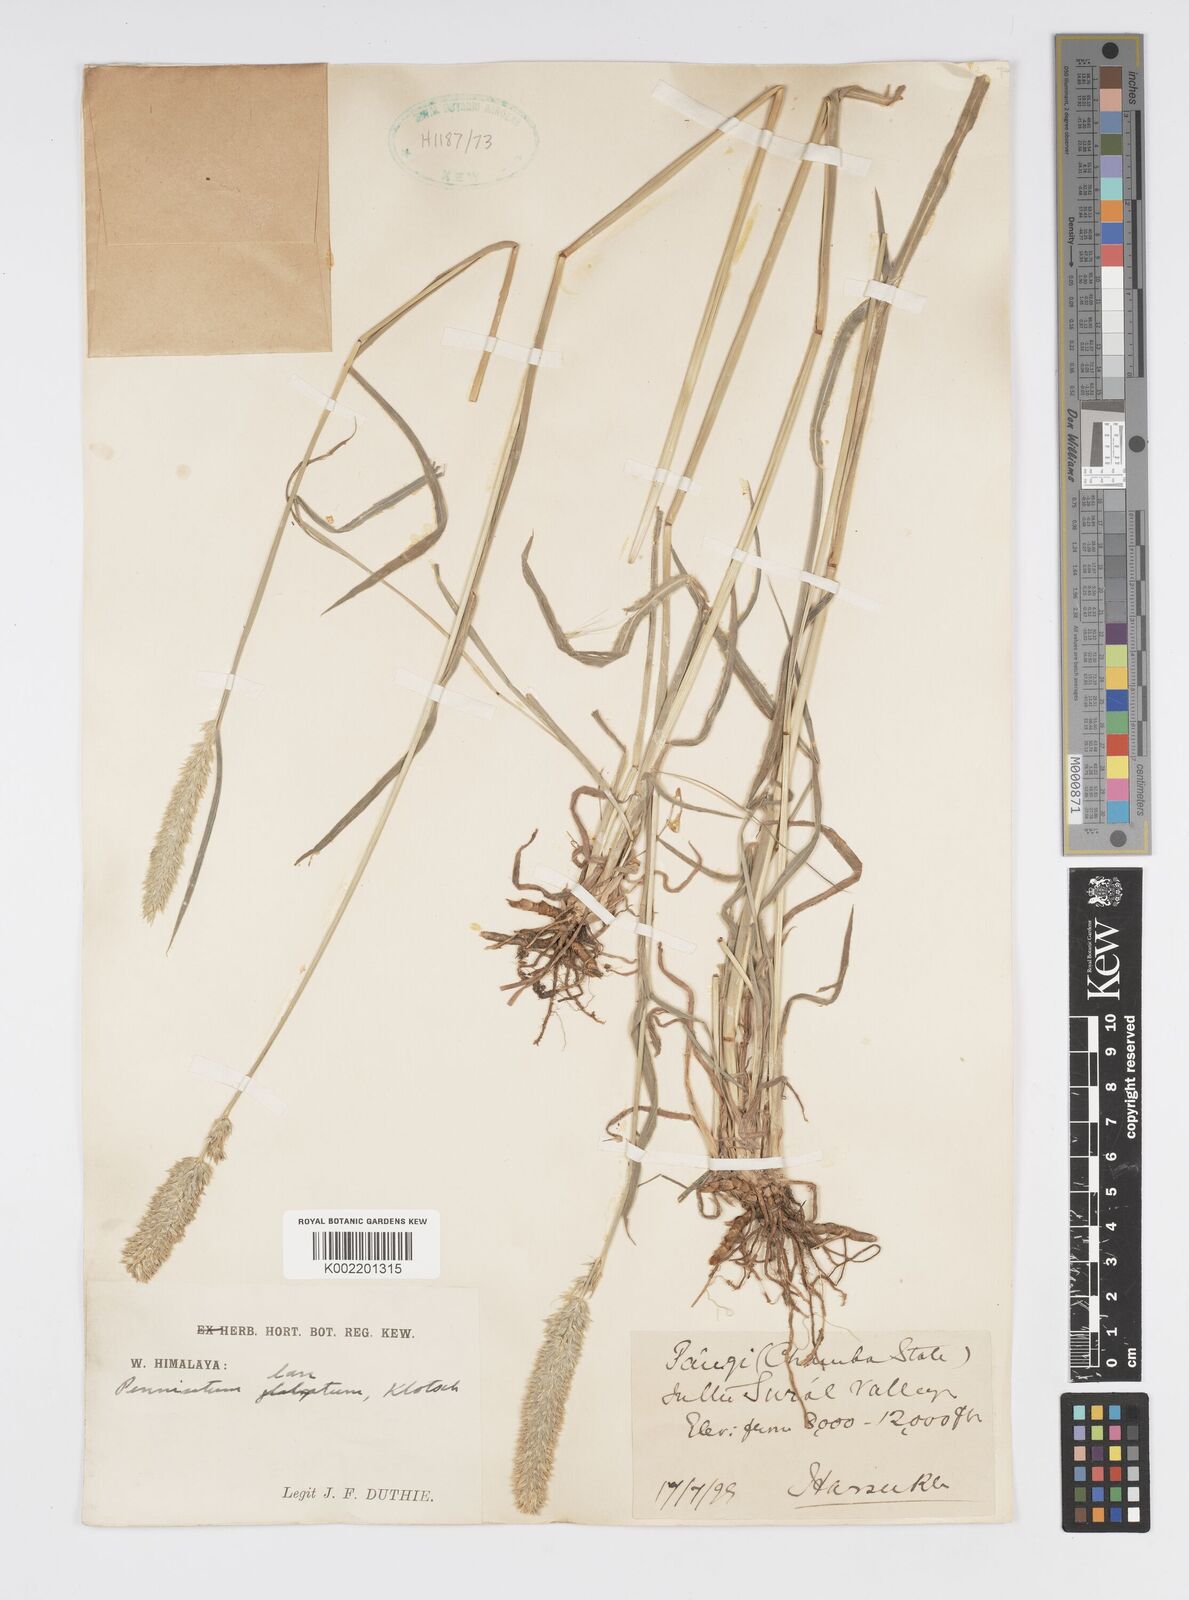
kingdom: Plantae
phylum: Tracheophyta
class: Liliopsida
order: Poales
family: Poaceae
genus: Cenchrus
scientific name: Cenchrus lanatus
